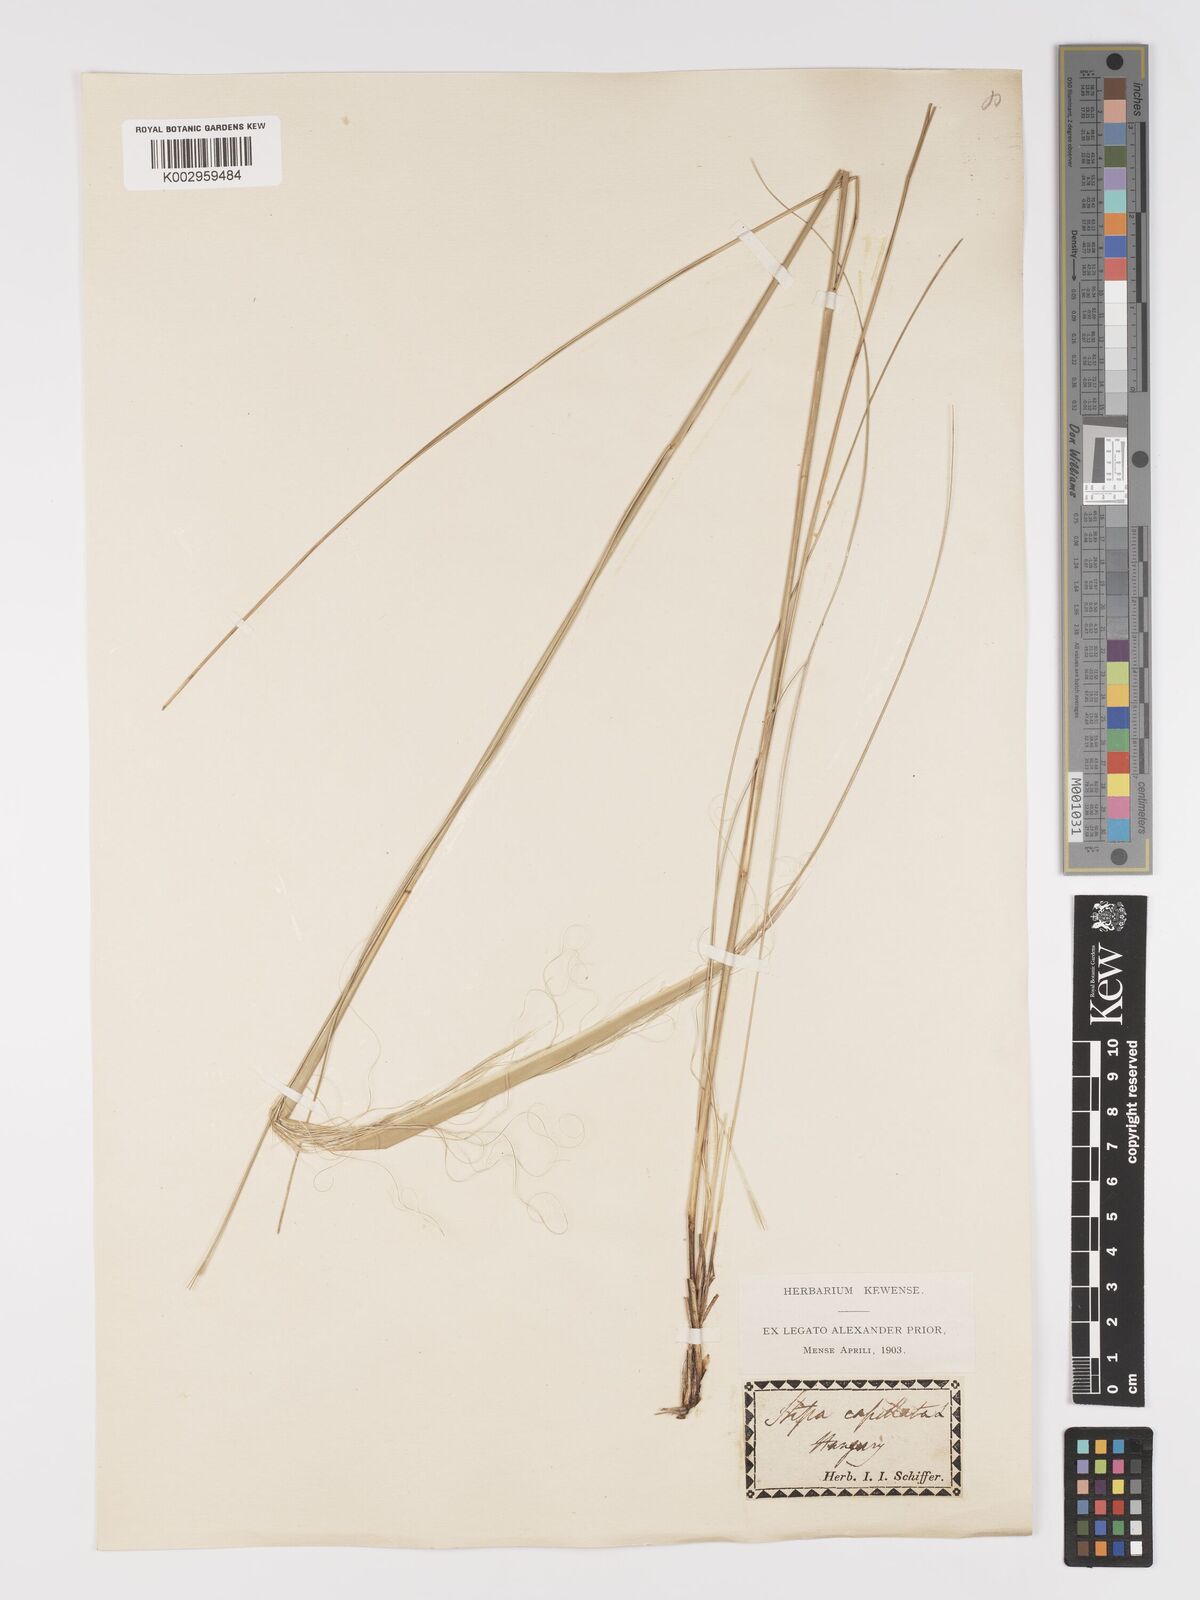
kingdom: Plantae
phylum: Tracheophyta
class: Liliopsida
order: Poales
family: Poaceae
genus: Stipa
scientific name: Stipa capillata
